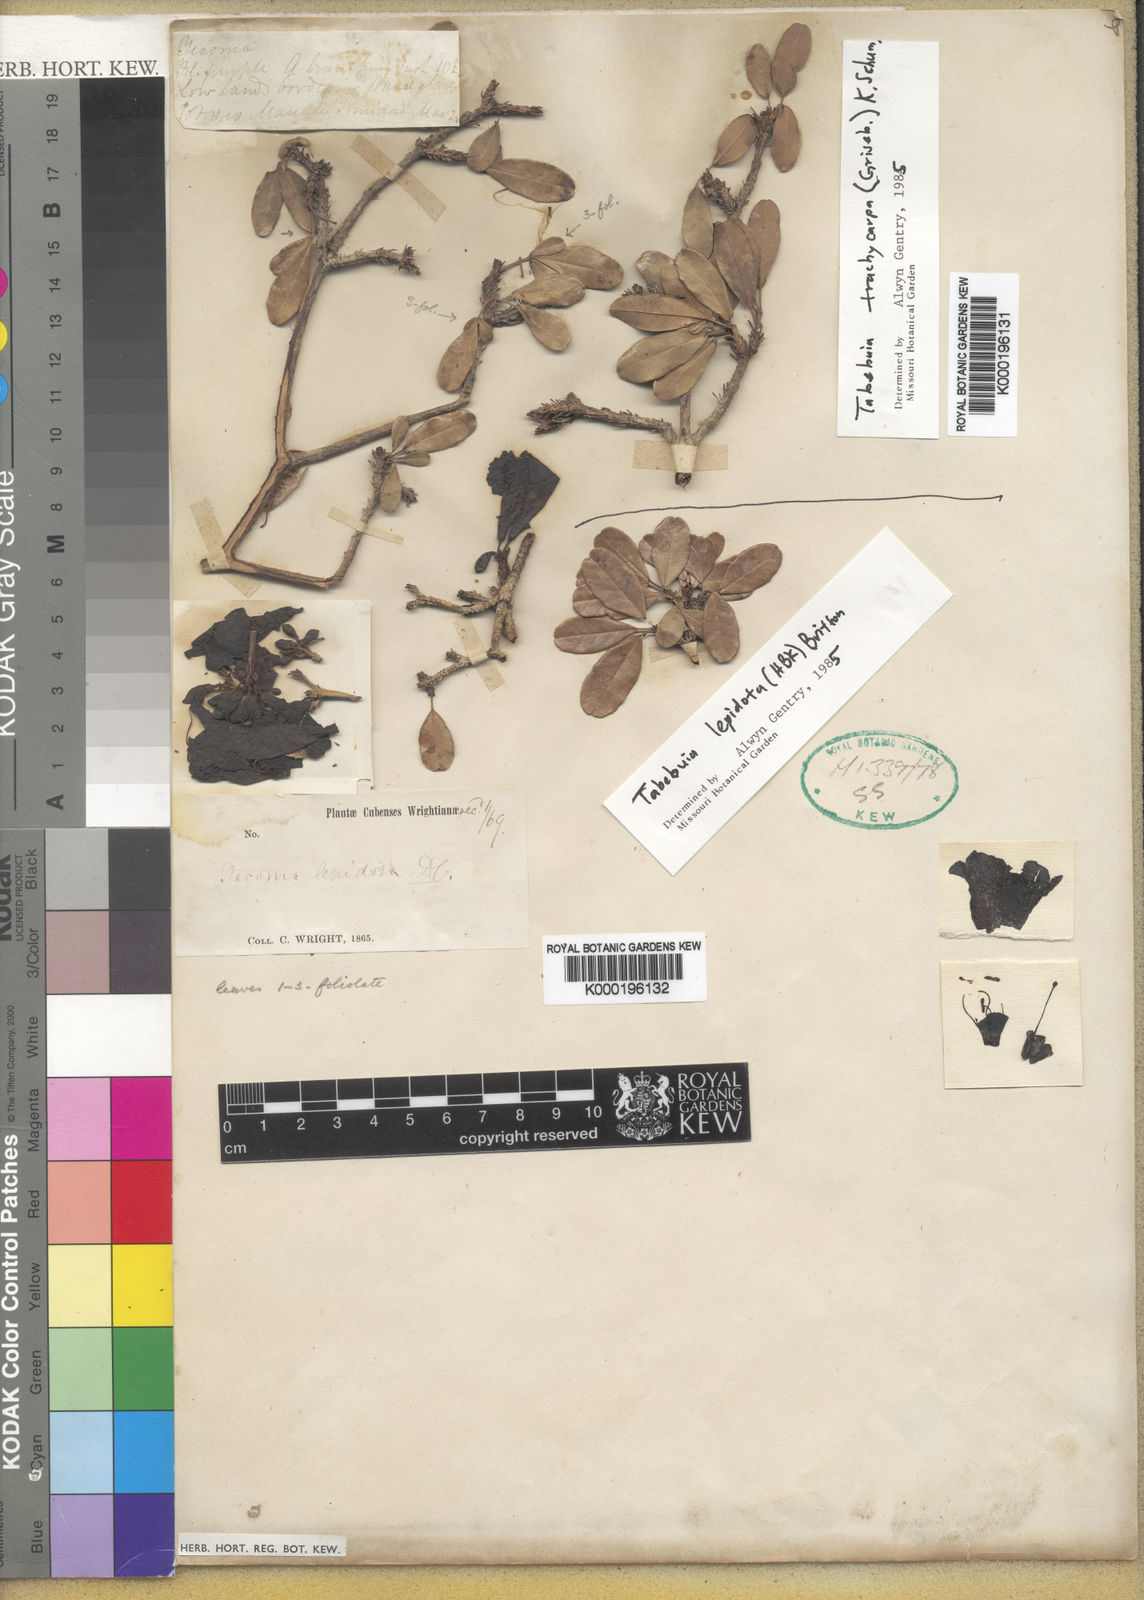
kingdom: Plantae
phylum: Tracheophyta
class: Magnoliopsida
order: Lamiales
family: Bignoniaceae
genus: Tabebuia
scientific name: Tabebuia trachycarpa
